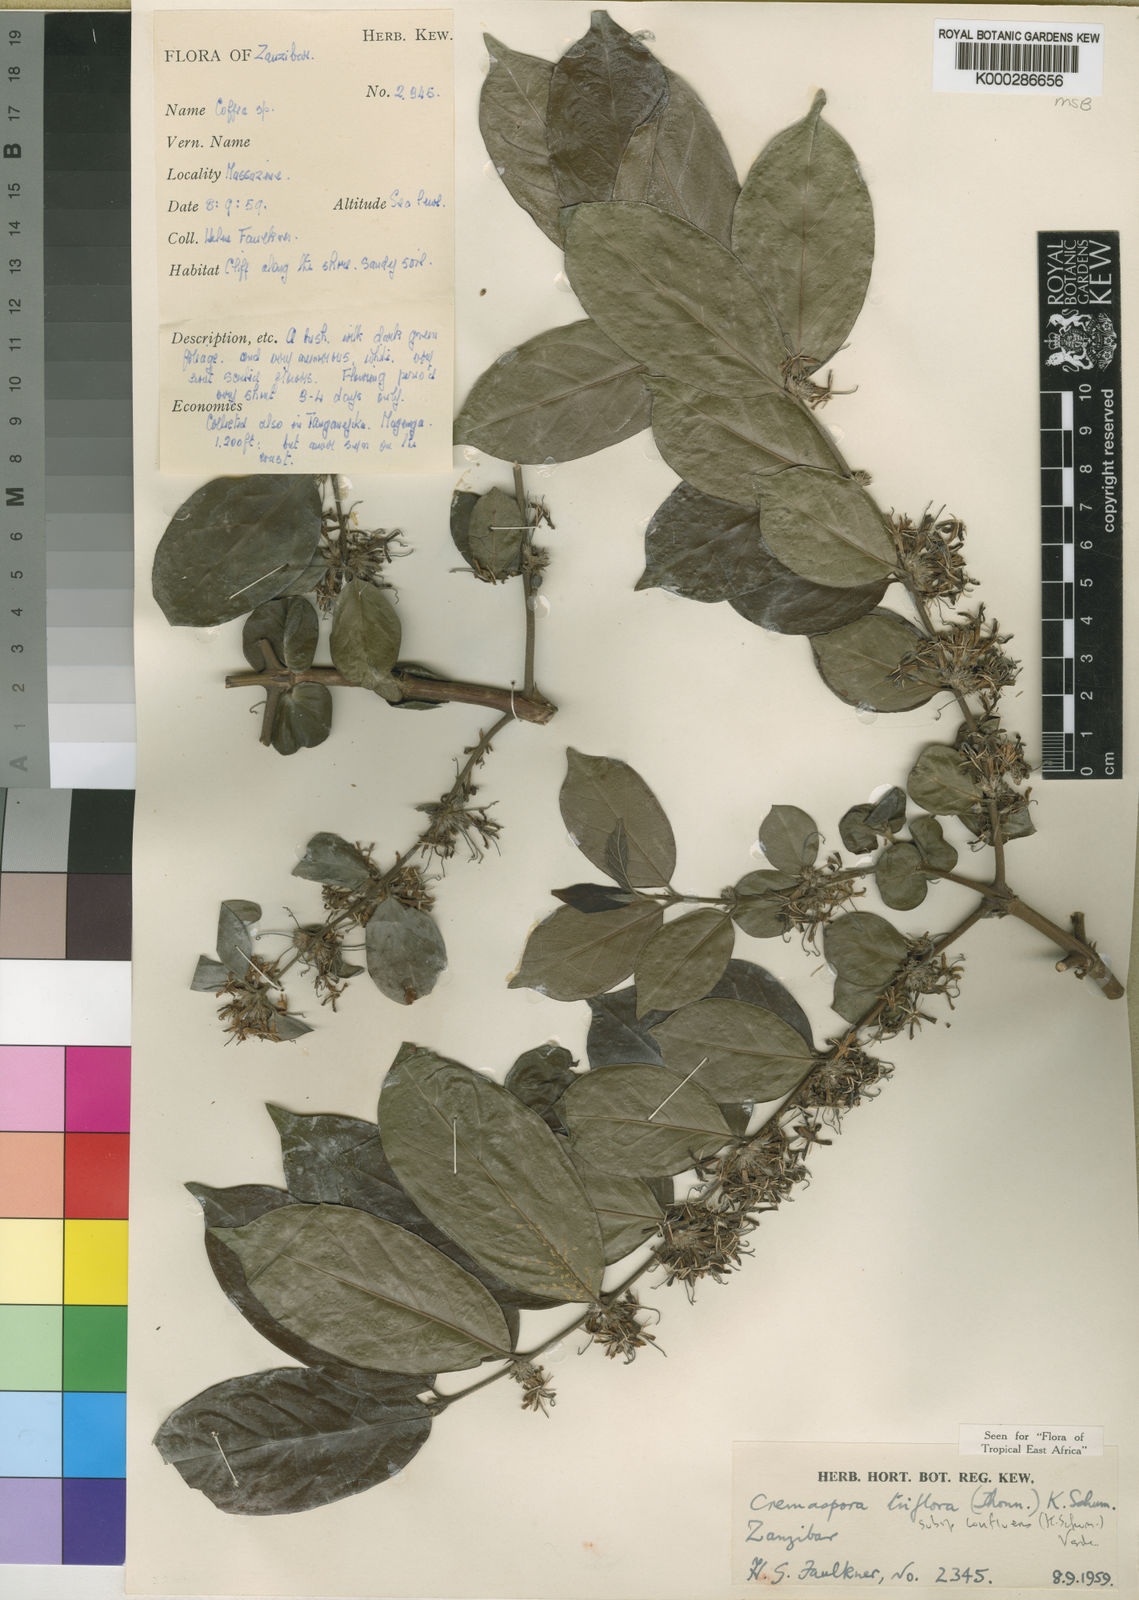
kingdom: Plantae
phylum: Tracheophyta
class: Magnoliopsida
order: Gentianales
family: Rubiaceae
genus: Cremaspora
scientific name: Cremaspora triflora
